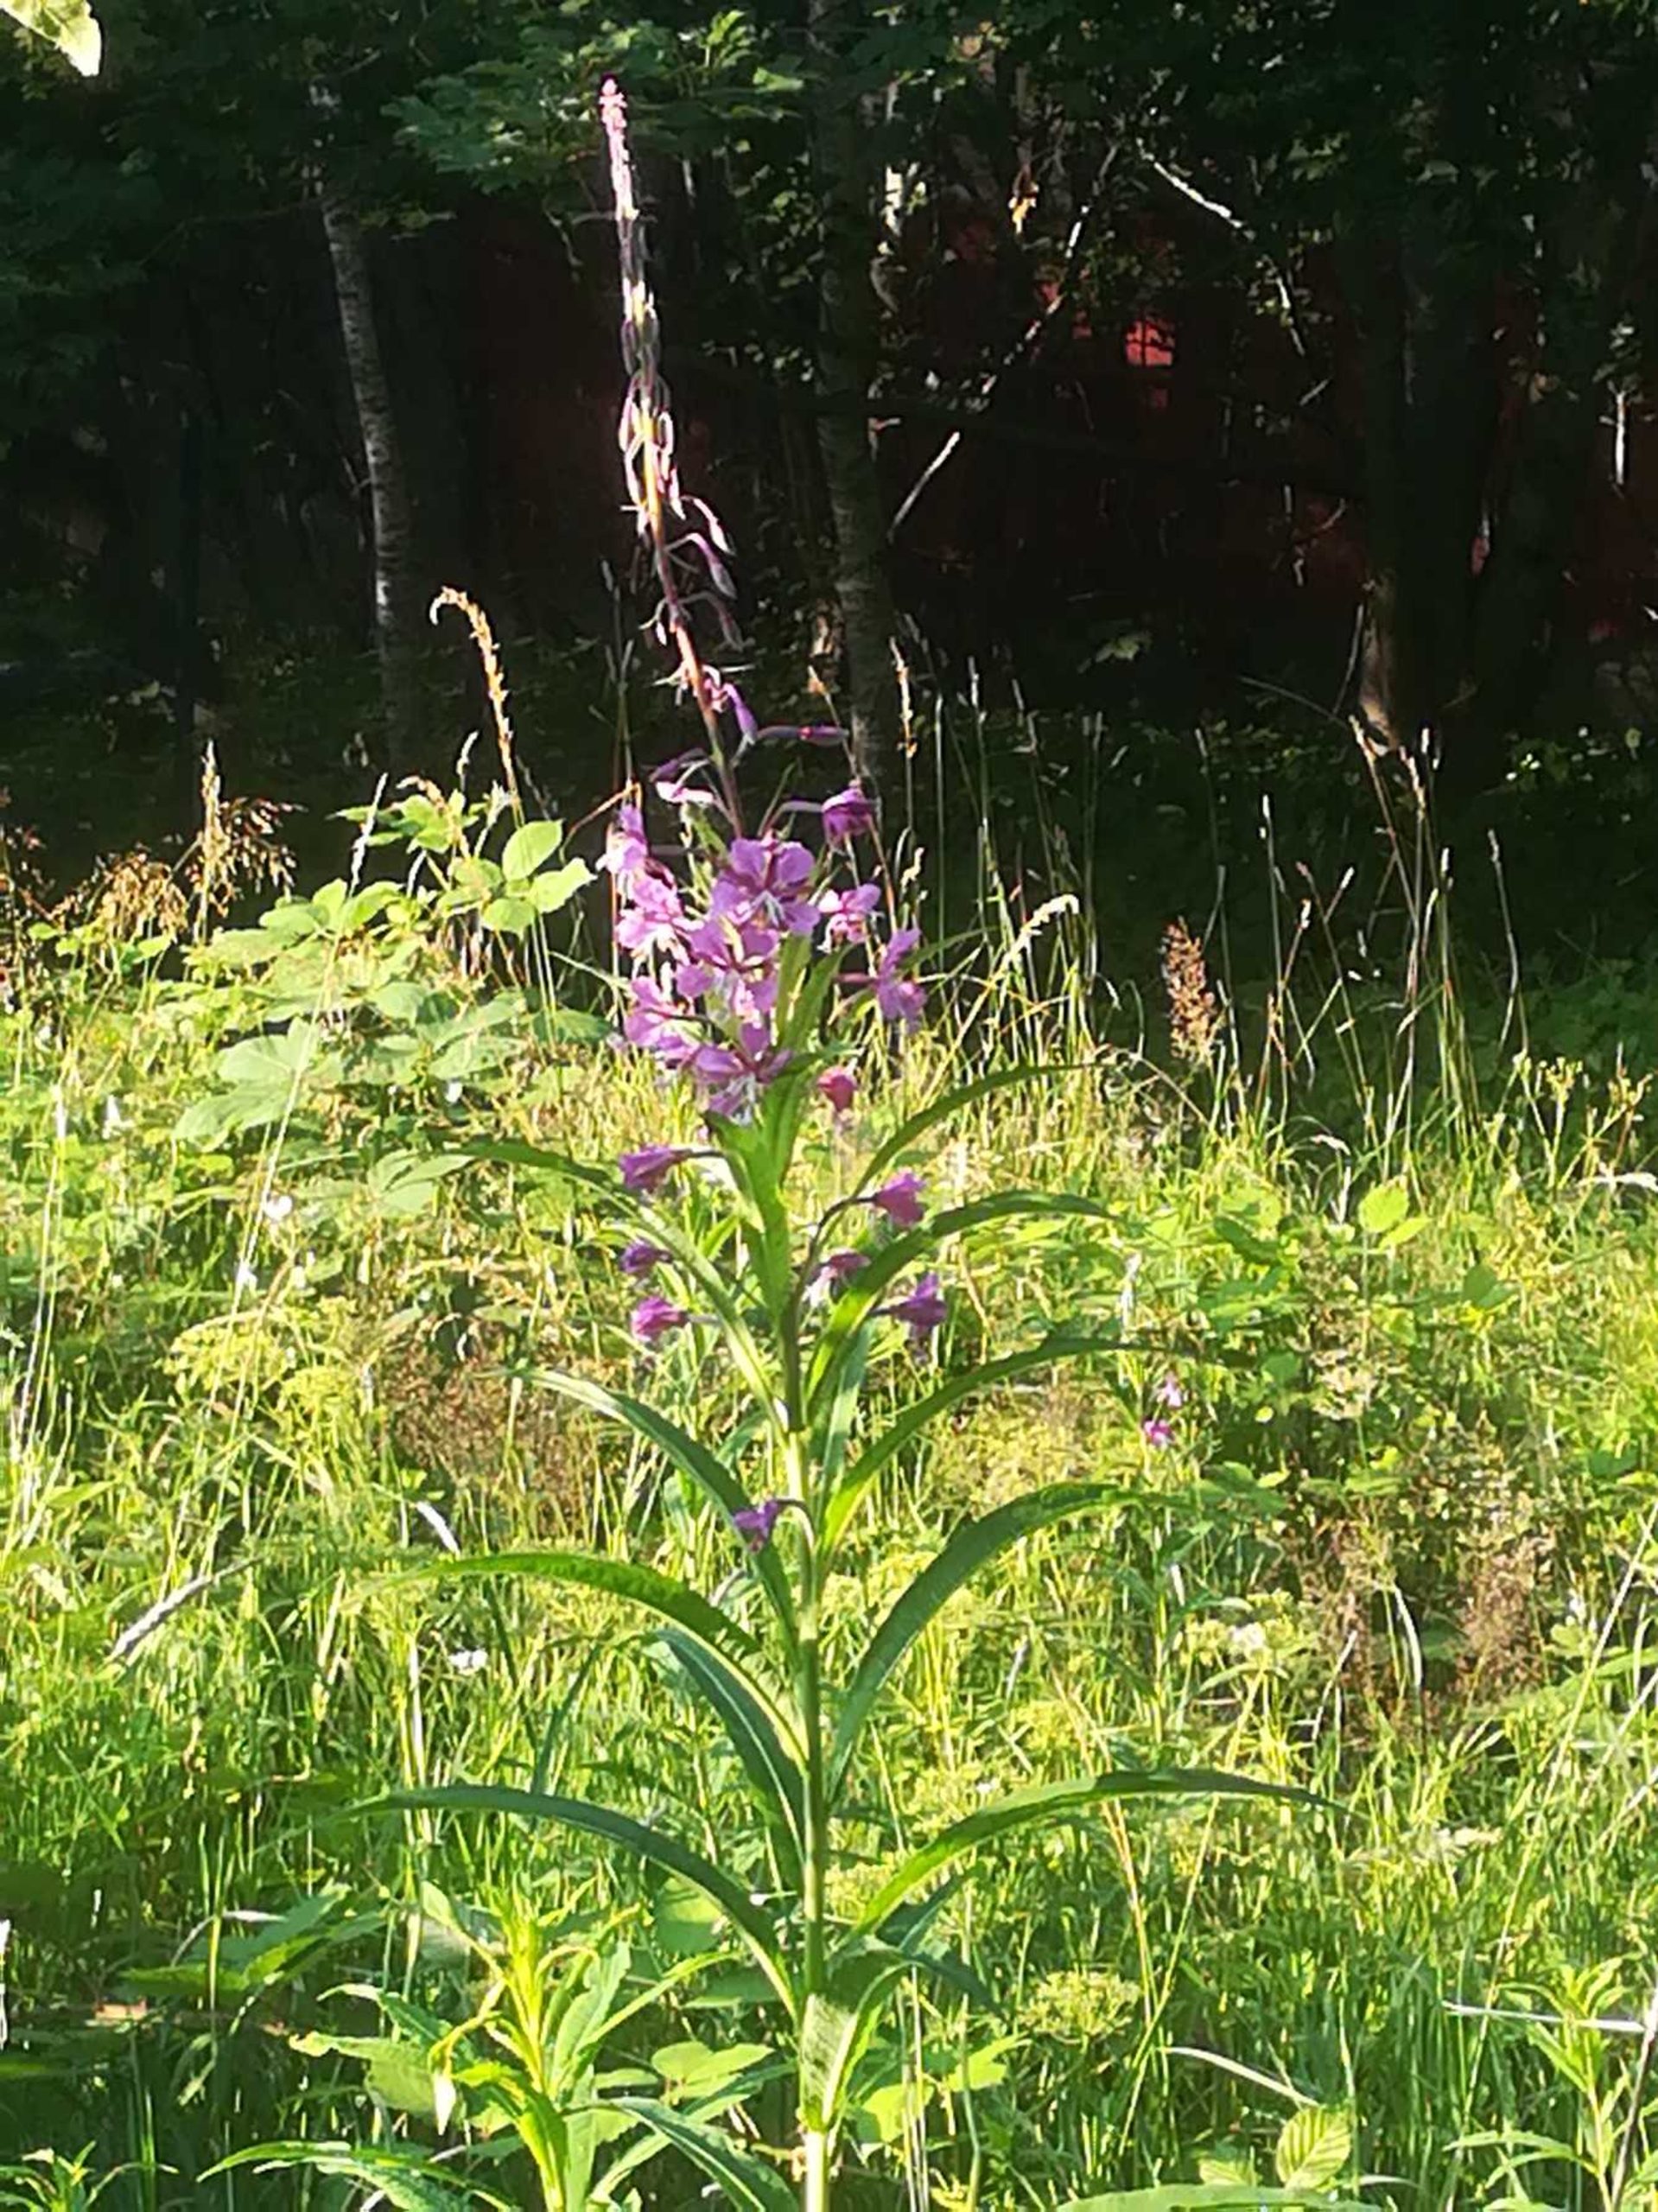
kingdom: Plantae
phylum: Tracheophyta
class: Magnoliopsida
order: Myrtales
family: Onagraceae
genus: Chamaenerion
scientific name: Chamaenerion angustifolium
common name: Gederams
